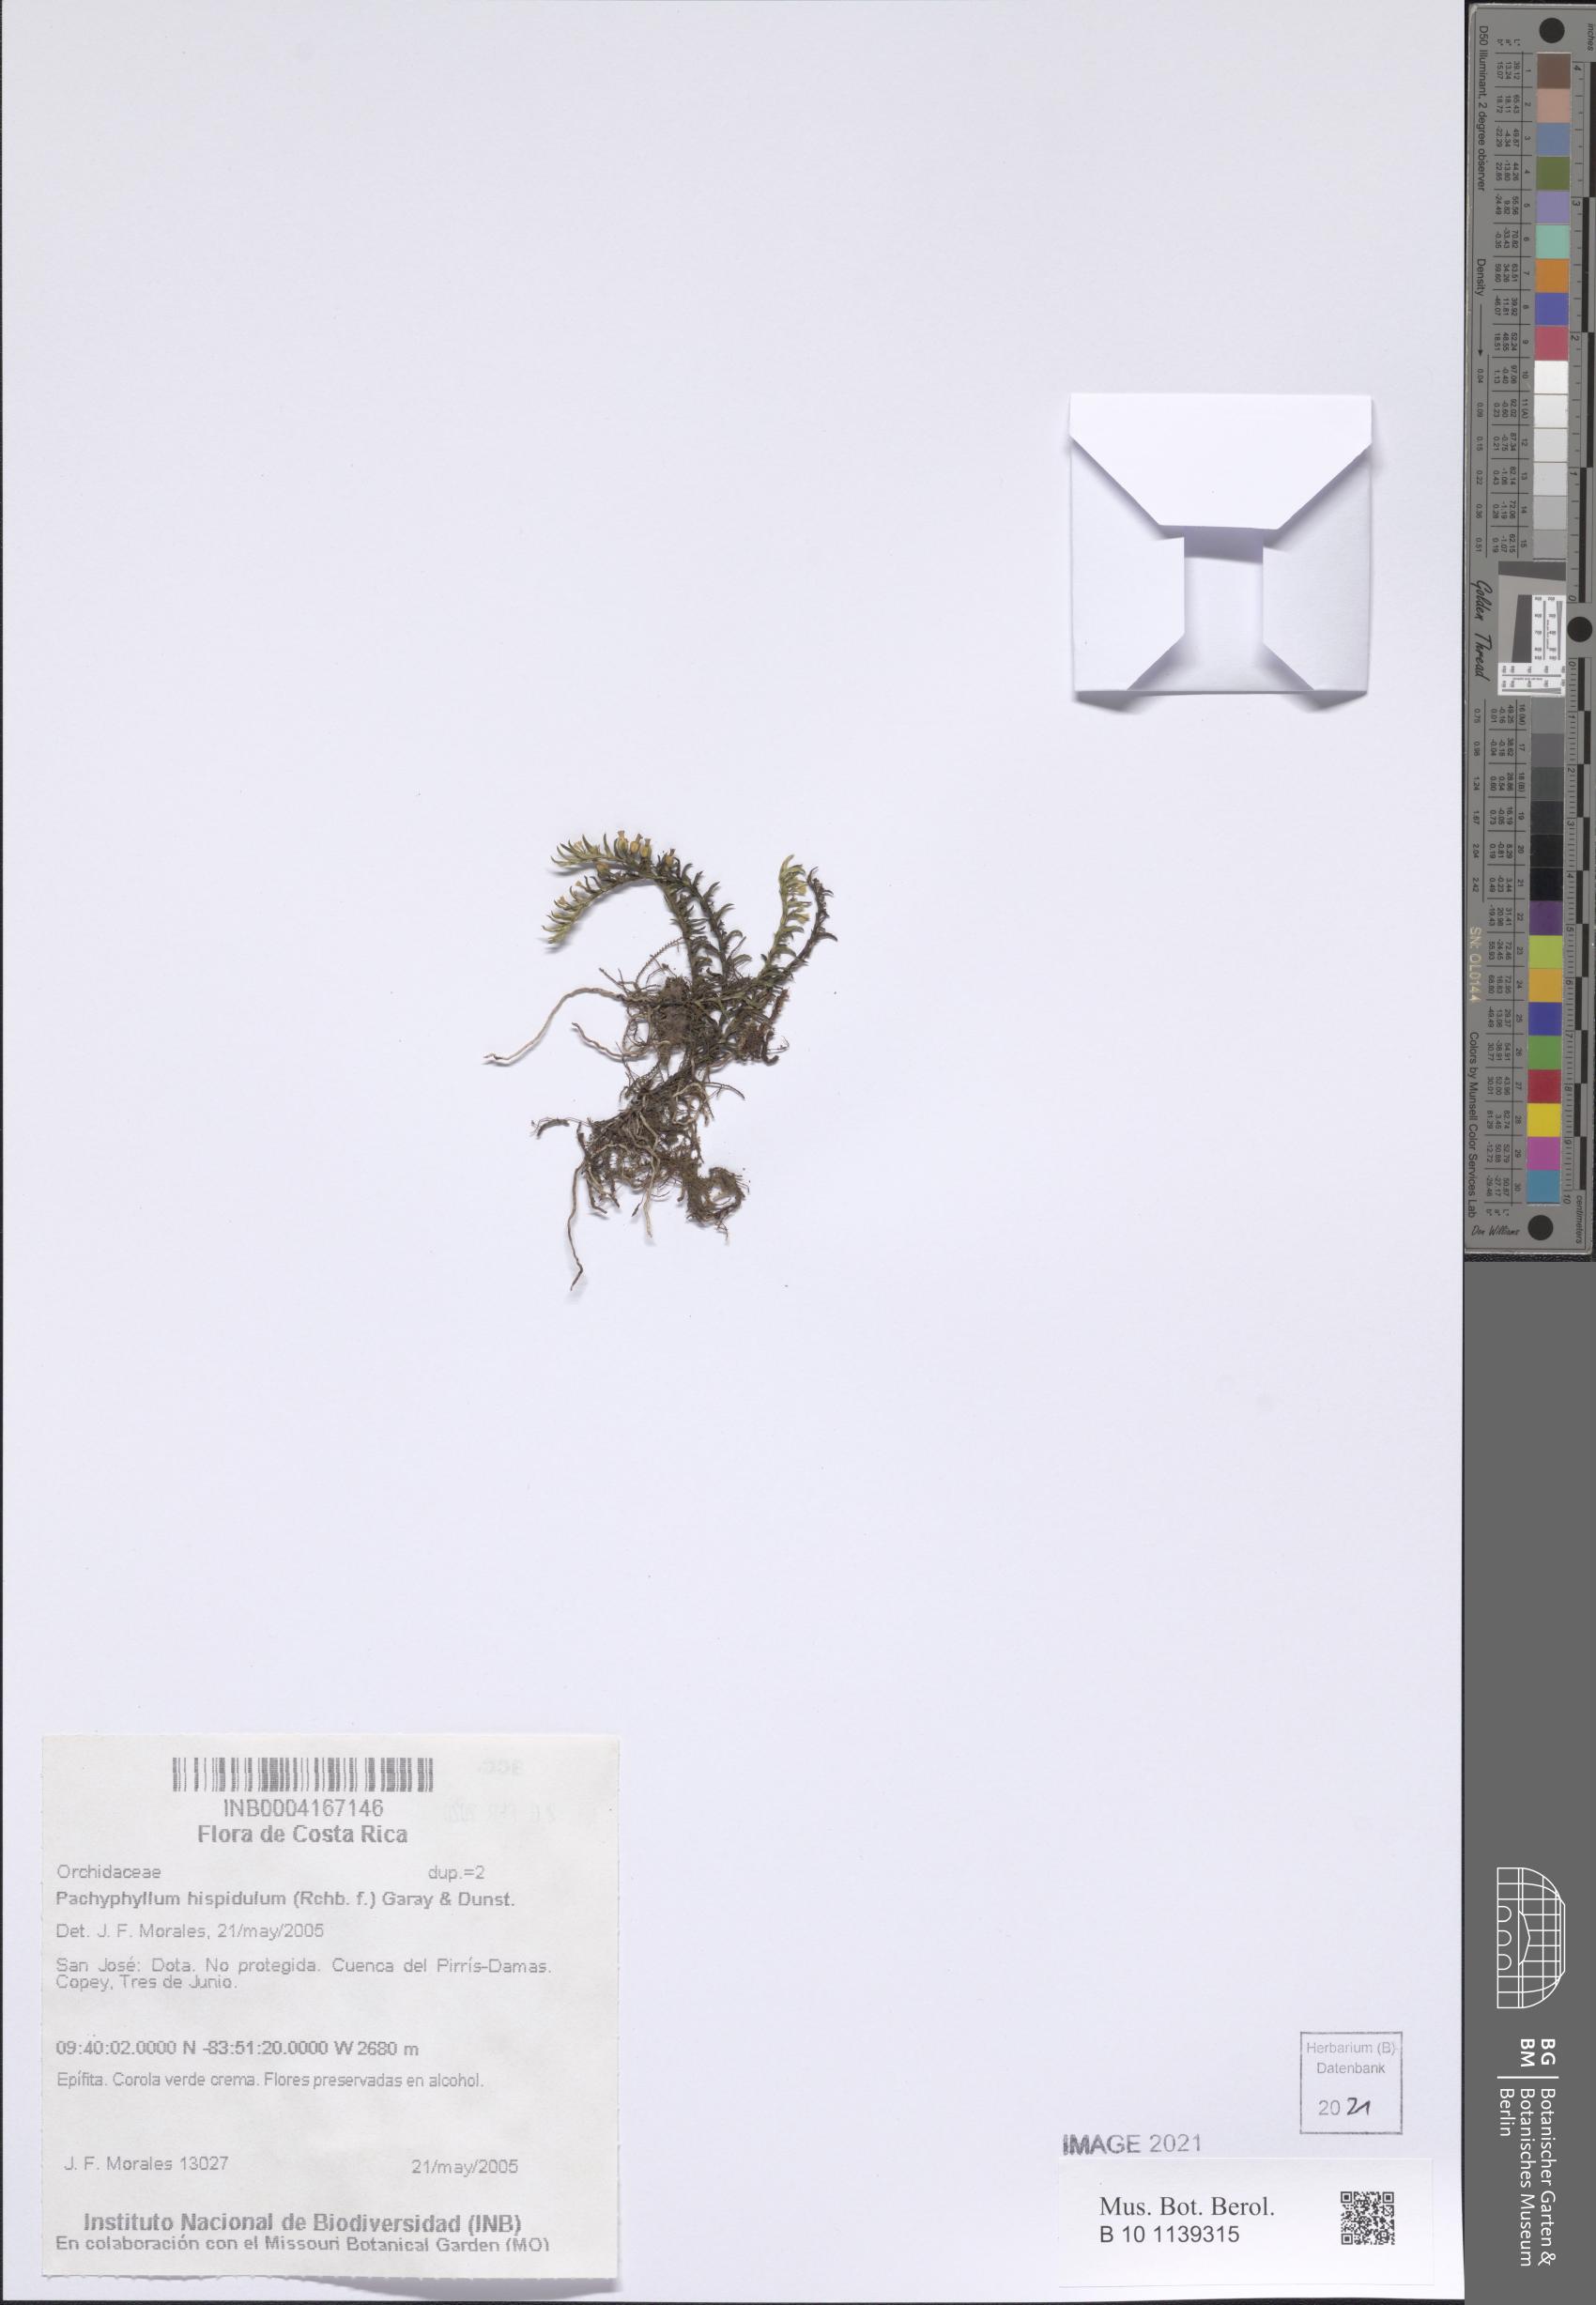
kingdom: Plantae
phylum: Tracheophyta
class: Liliopsida
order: Asparagales
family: Orchidaceae
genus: Fernandezia
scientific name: Fernandezia hispidula
